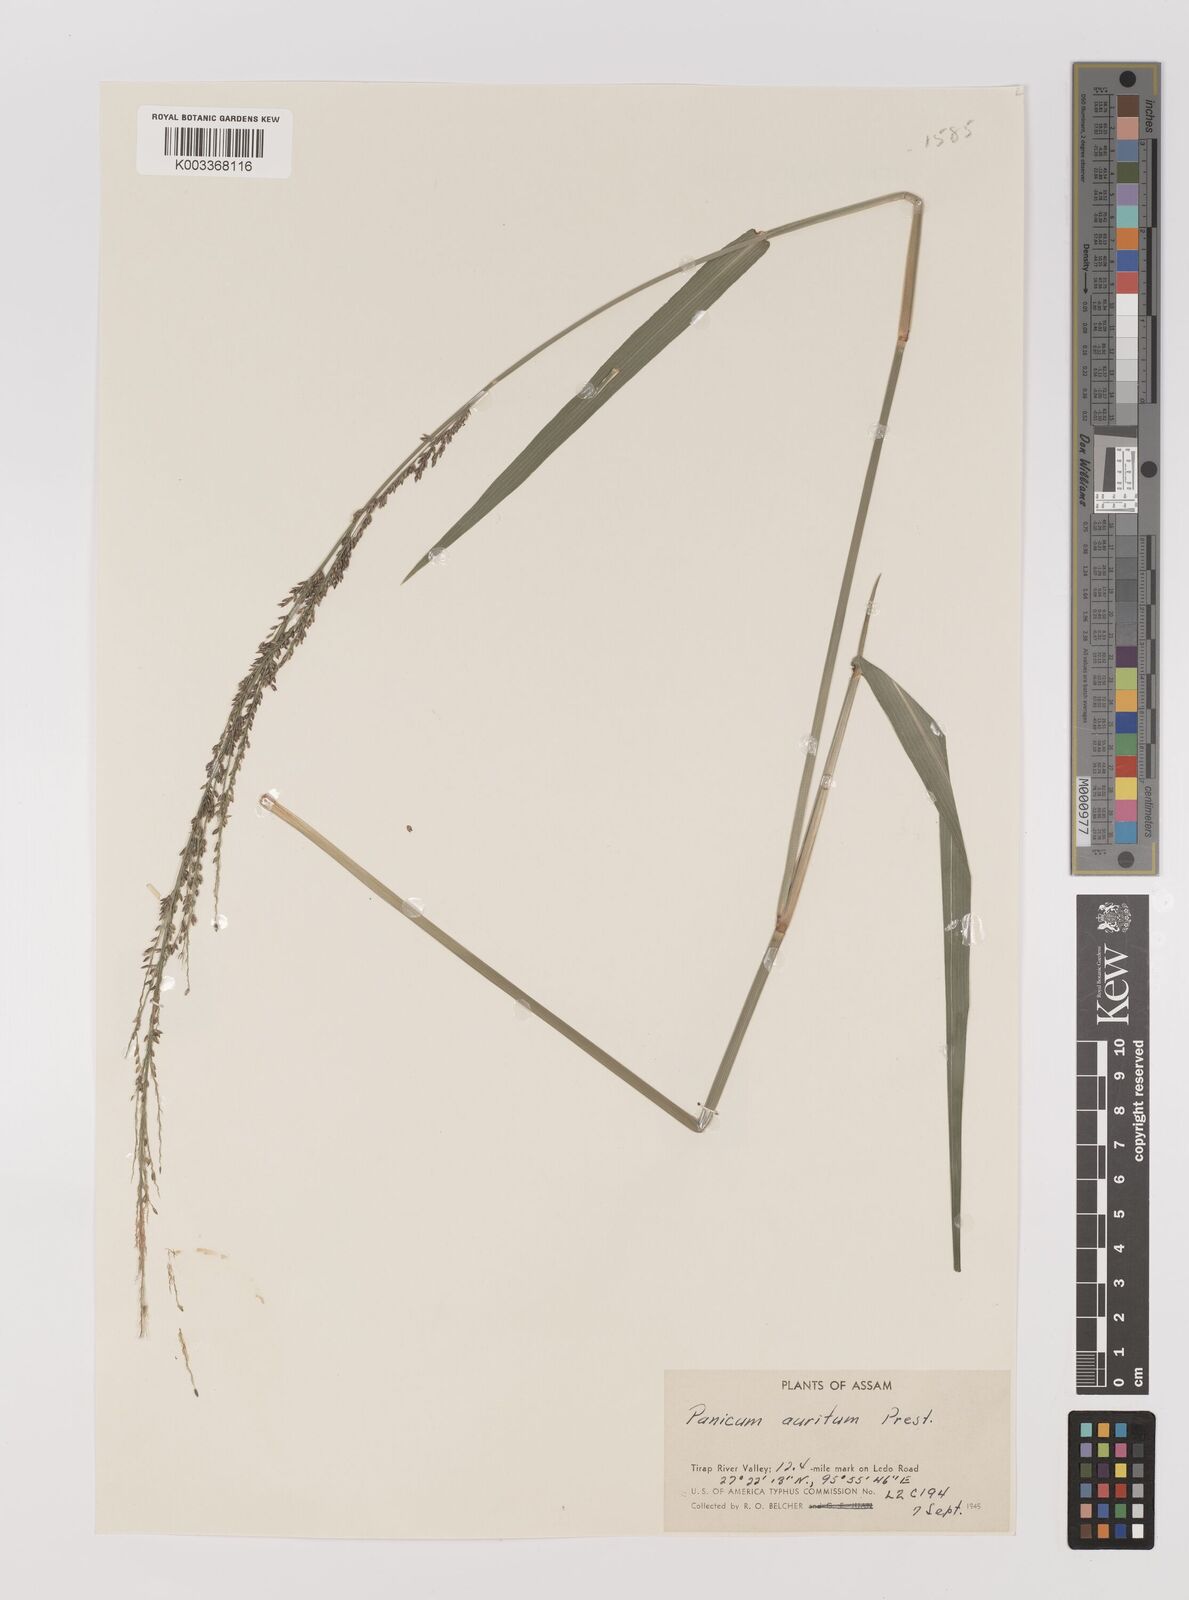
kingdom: Plantae
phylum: Tracheophyta
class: Liliopsida
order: Poales
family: Poaceae
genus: Hymenachne
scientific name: Hymenachne aurita
